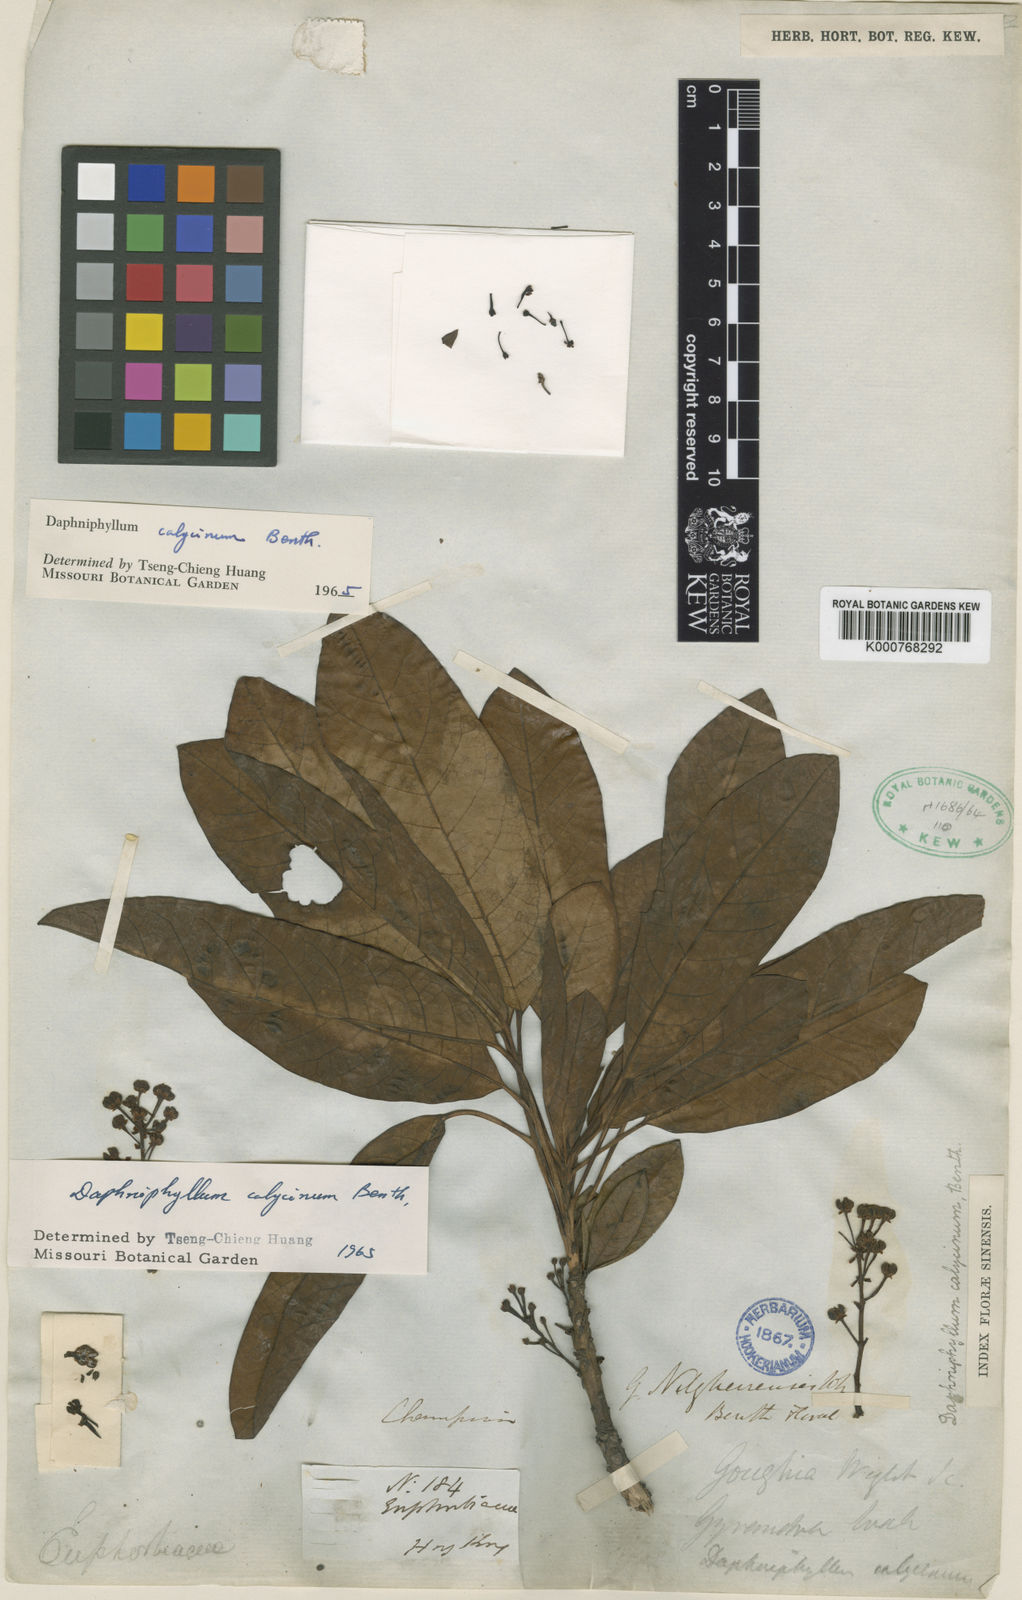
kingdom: Plantae
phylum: Tracheophyta
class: Magnoliopsida
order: Saxifragales
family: Daphniphyllaceae
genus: Daphniphyllum
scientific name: Daphniphyllum calycinum
